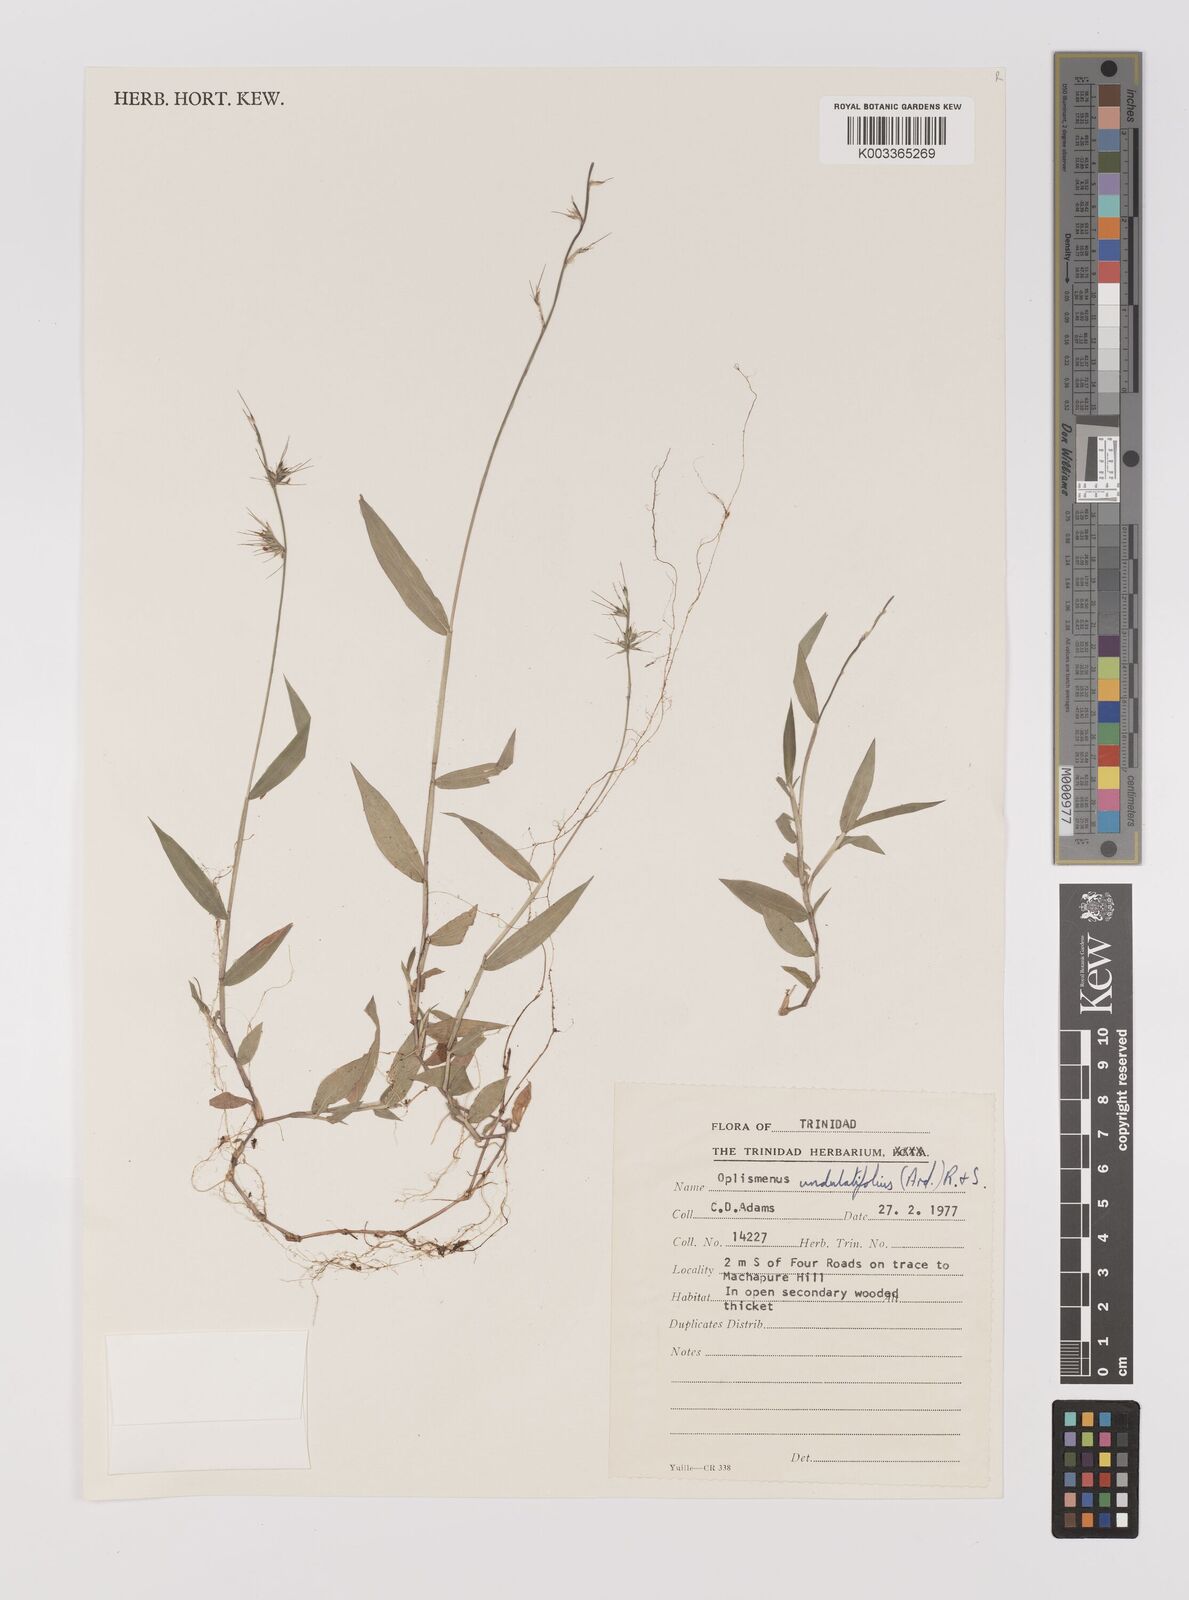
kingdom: Plantae
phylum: Tracheophyta
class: Liliopsida
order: Poales
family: Poaceae
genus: Oplismenus
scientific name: Oplismenus undulatifolius
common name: Wavyleaf basketgrass
